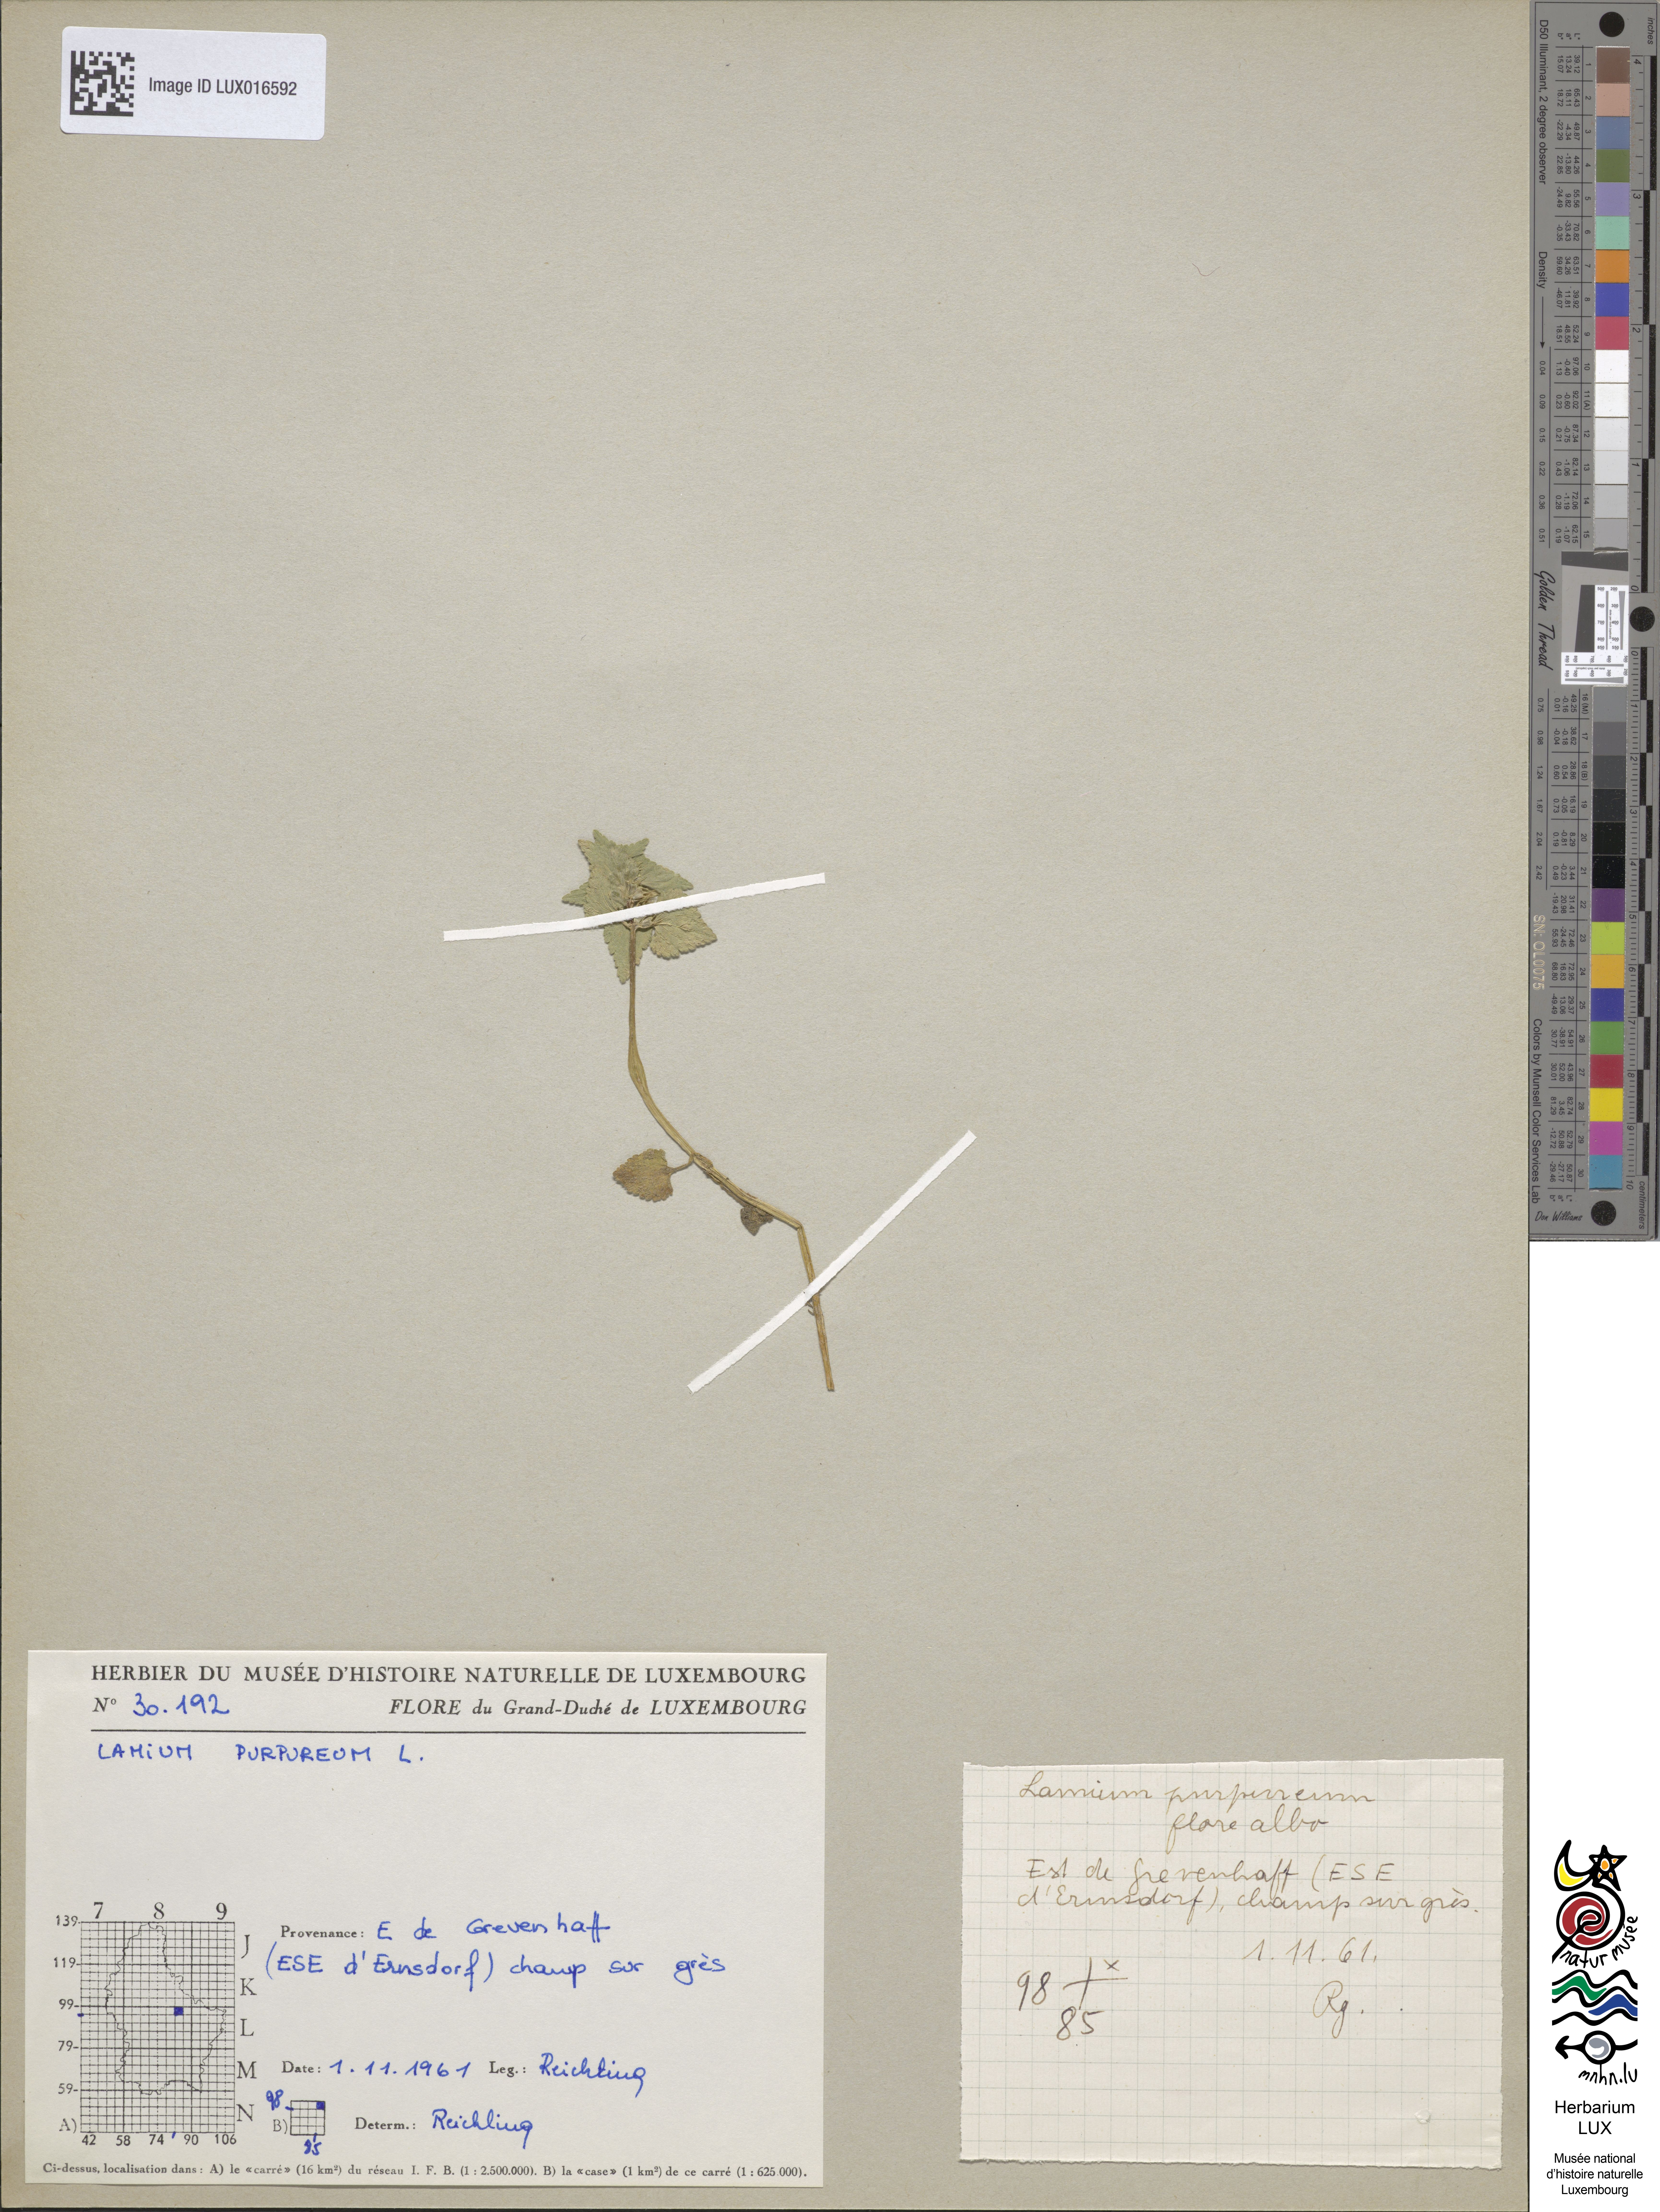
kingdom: Plantae
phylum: Tracheophyta
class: Magnoliopsida
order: Lamiales
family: Lamiaceae
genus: Lamium
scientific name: Lamium purpureum
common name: Red dead-nettle
